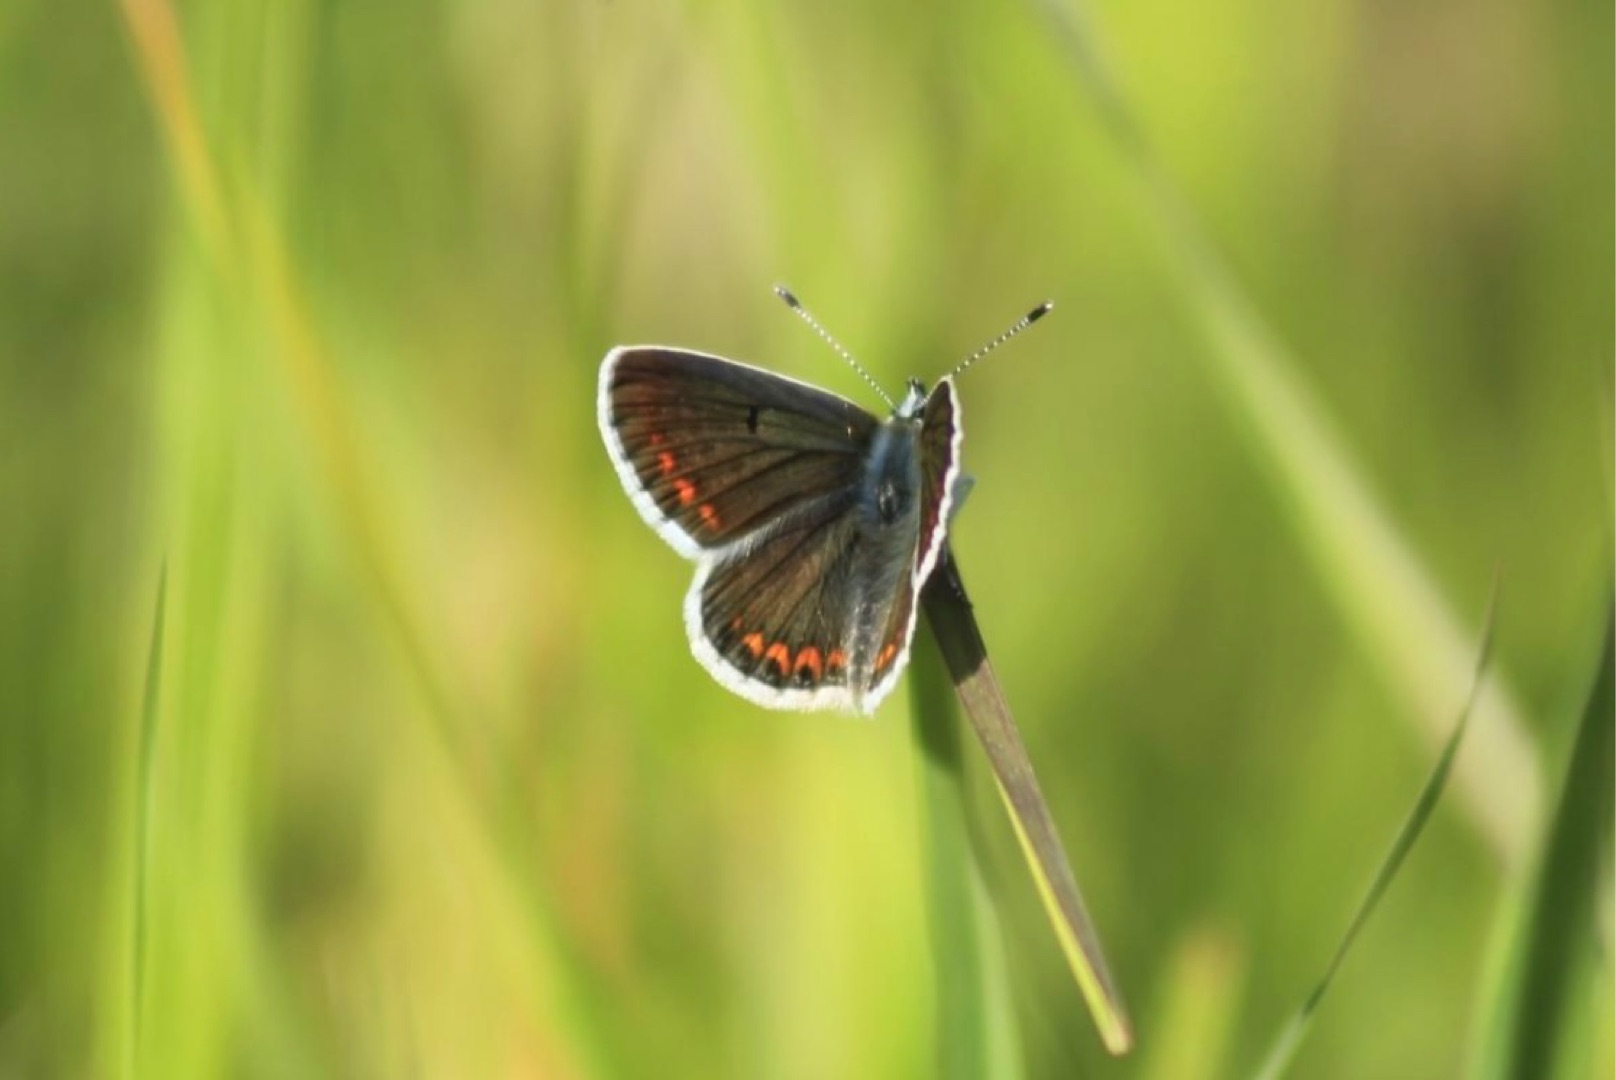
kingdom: Animalia
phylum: Arthropoda
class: Insecta
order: Lepidoptera
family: Lycaenidae
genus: Aricia
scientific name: Aricia agestis
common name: Rødplettet blåfugl
